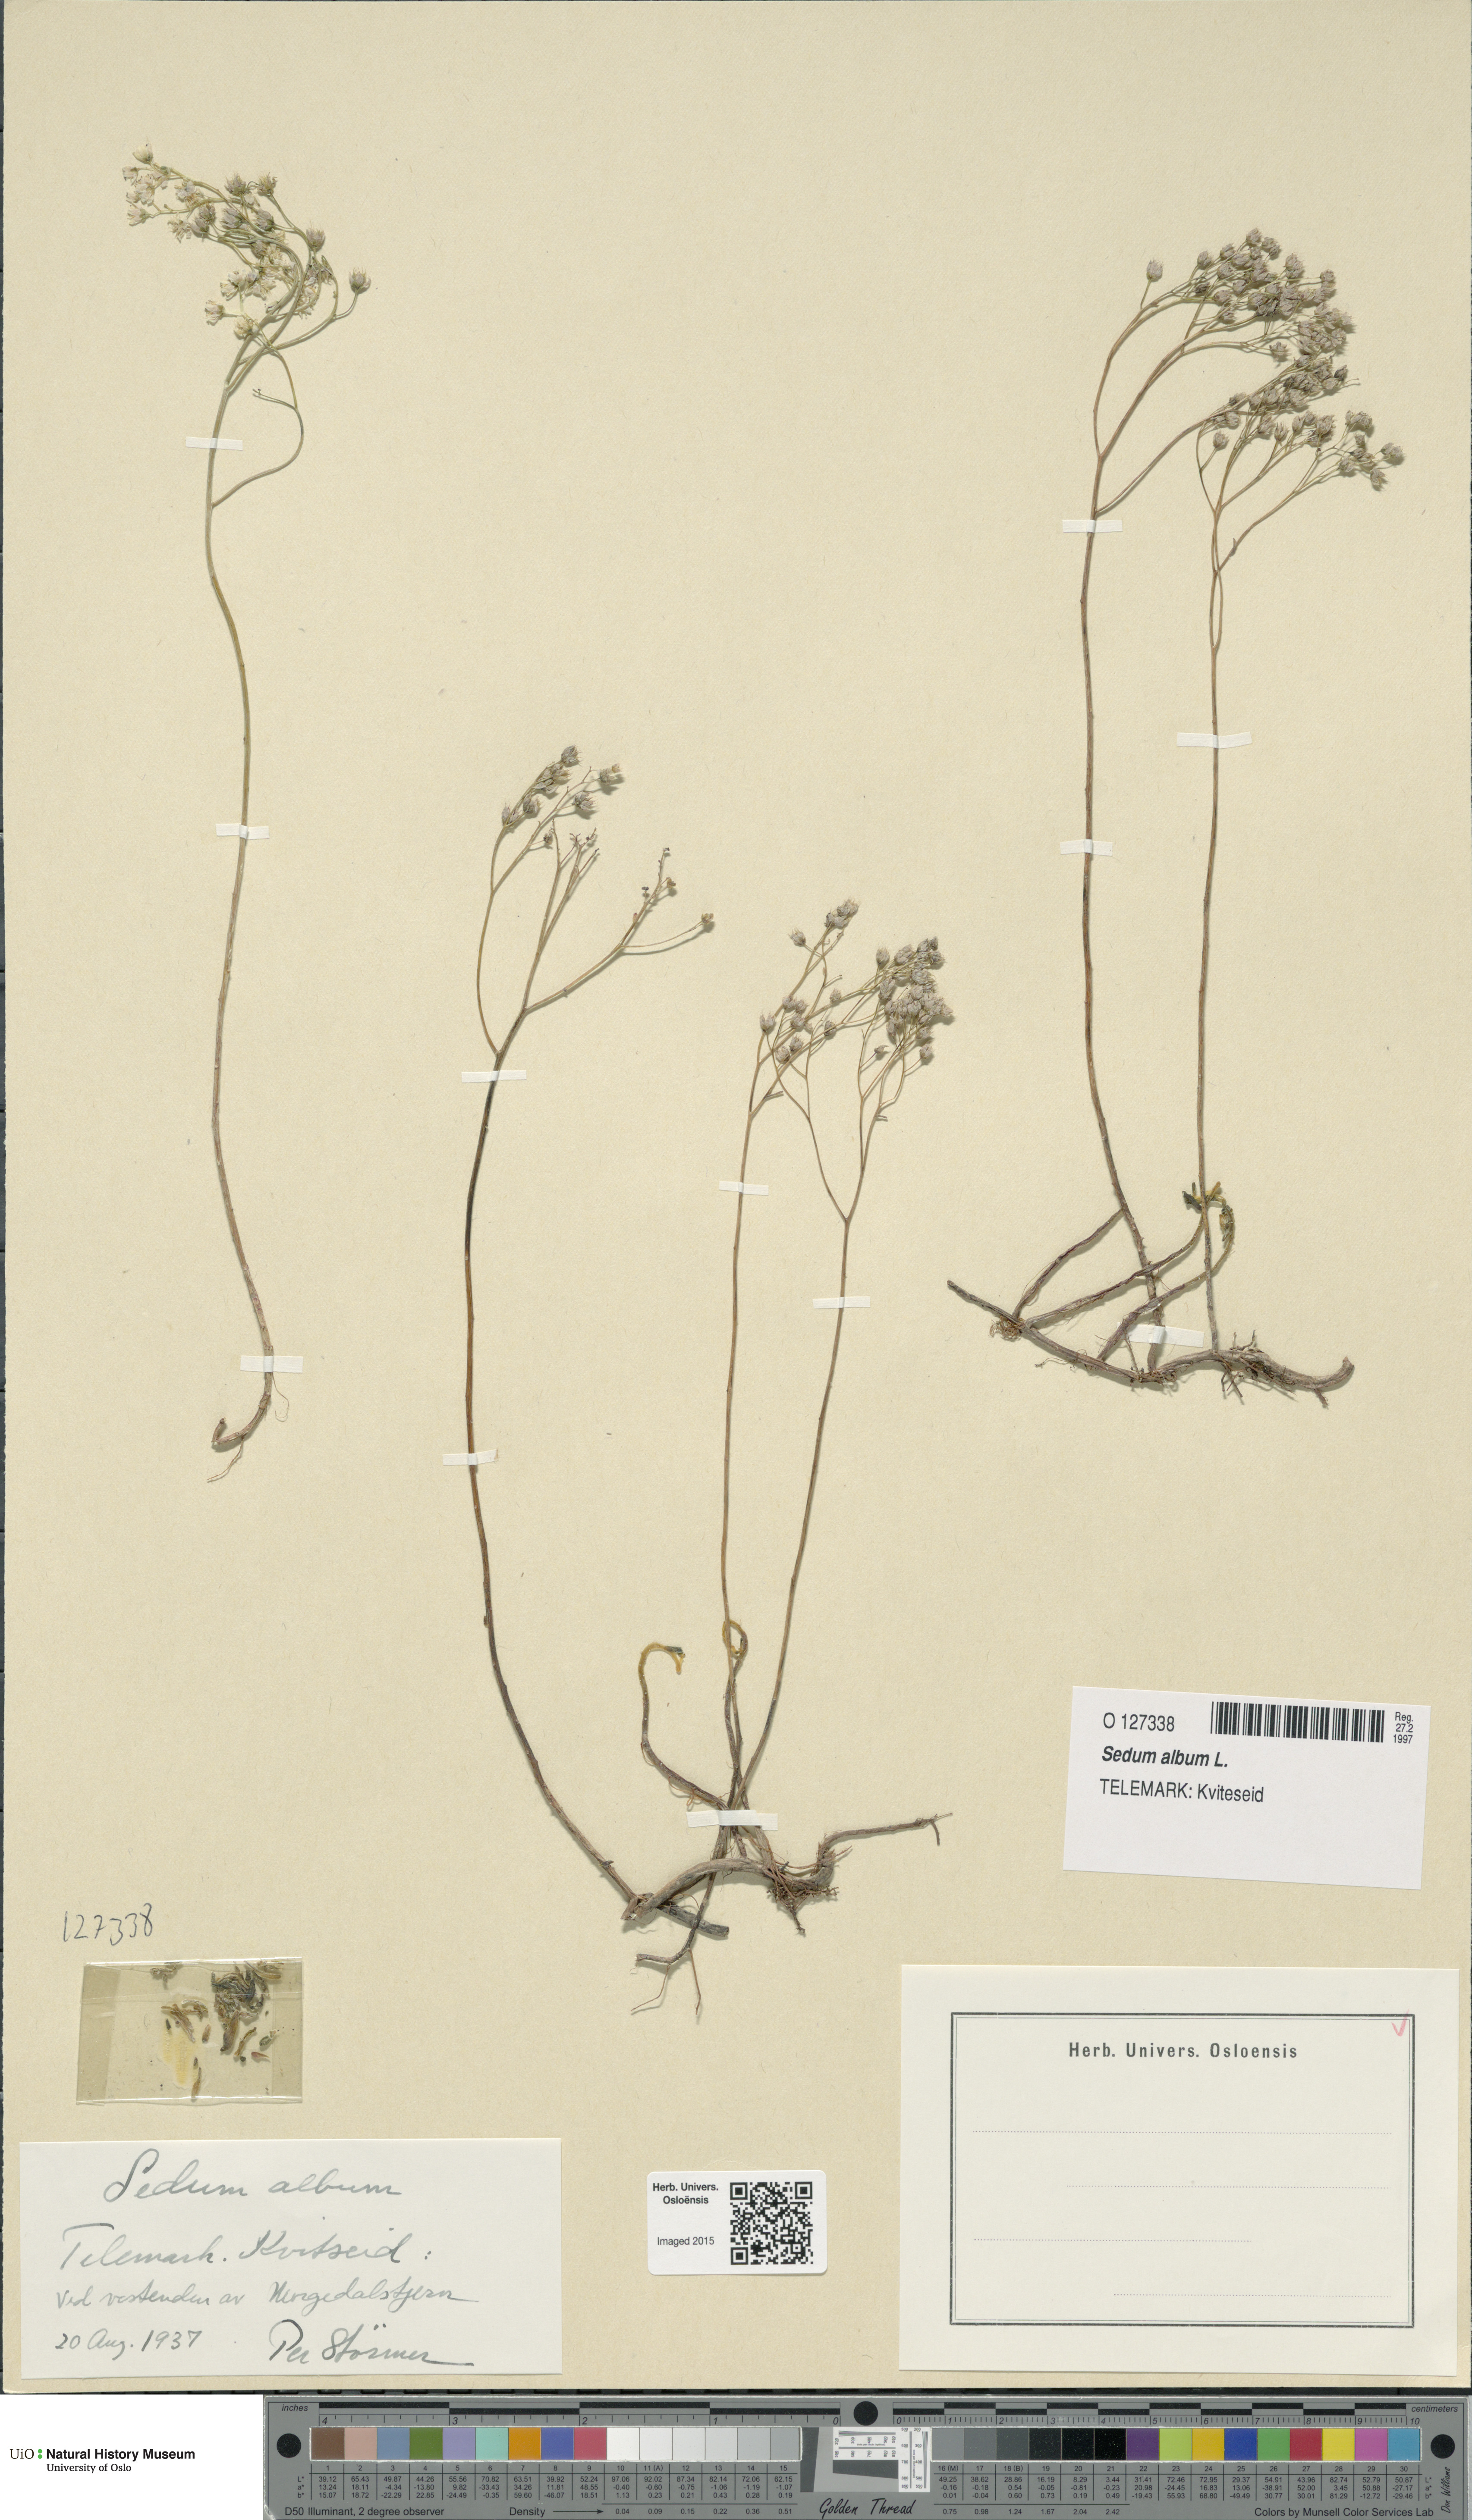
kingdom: Plantae
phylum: Tracheophyta
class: Magnoliopsida
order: Saxifragales
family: Crassulaceae
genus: Sedum
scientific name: Sedum album
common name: White stonecrop
